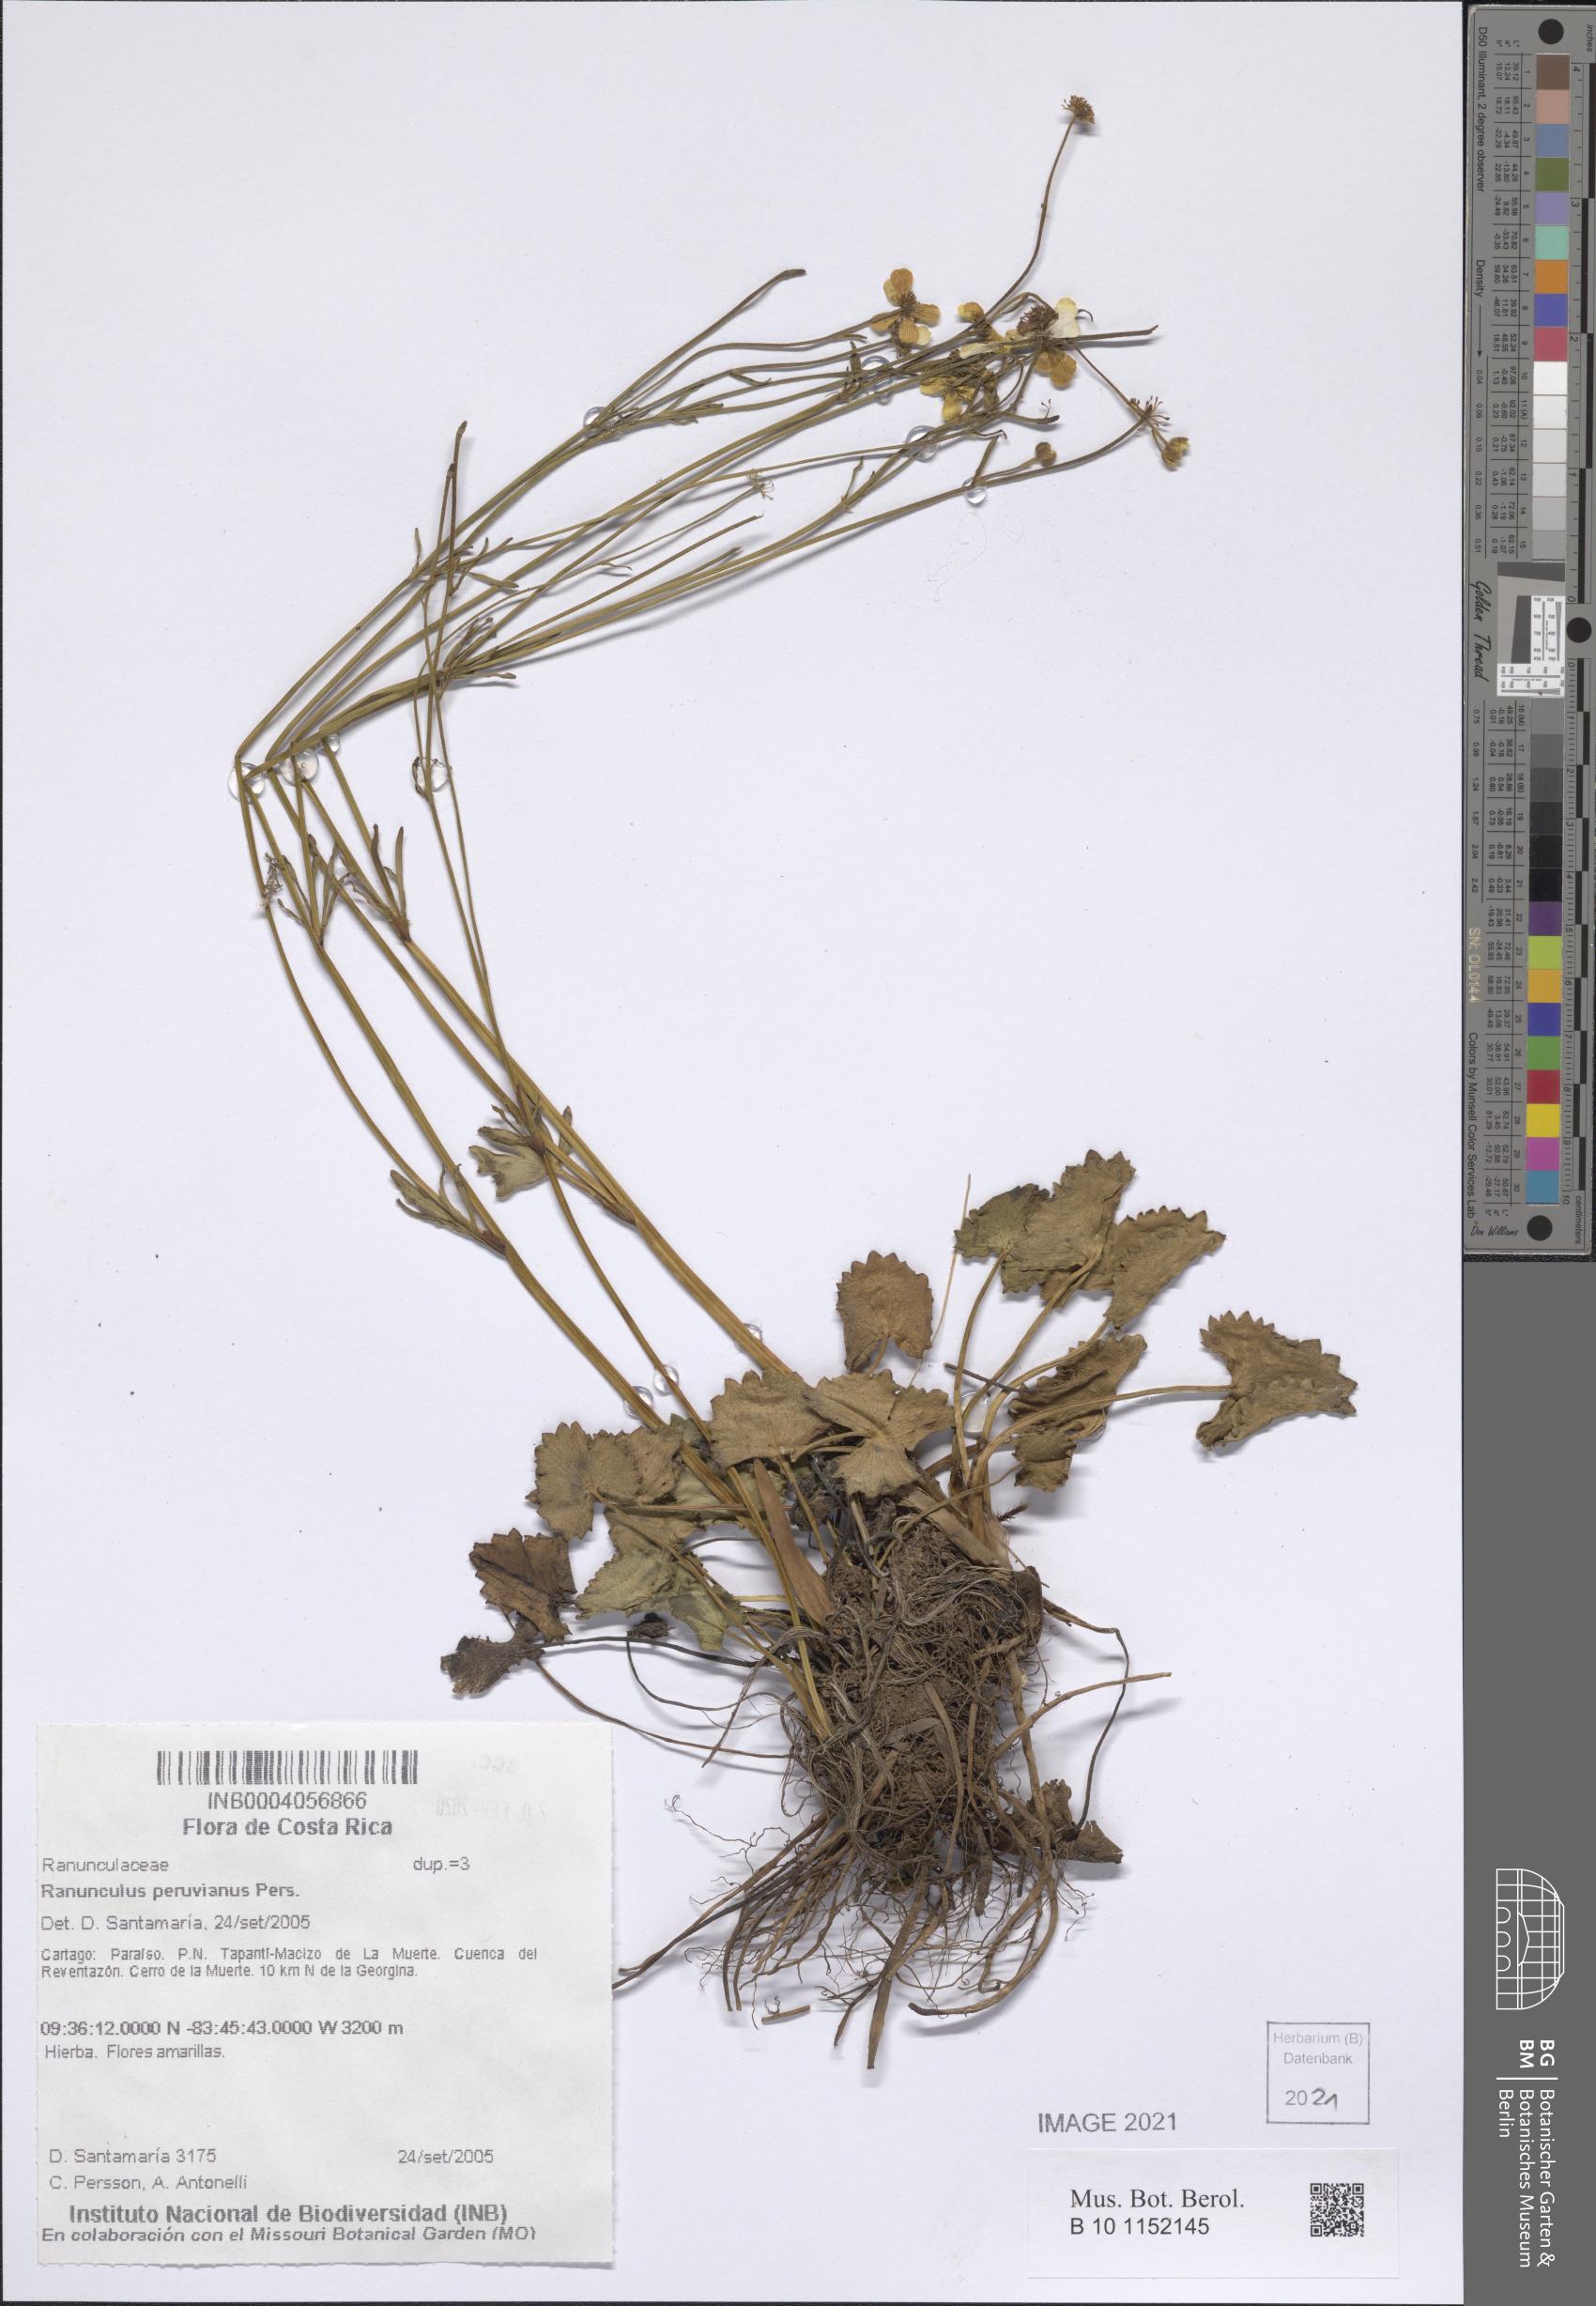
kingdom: Plantae
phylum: Tracheophyta
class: Magnoliopsida
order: Ranunculales
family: Ranunculaceae
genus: Ranunculus
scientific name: Ranunculus peruvianus
